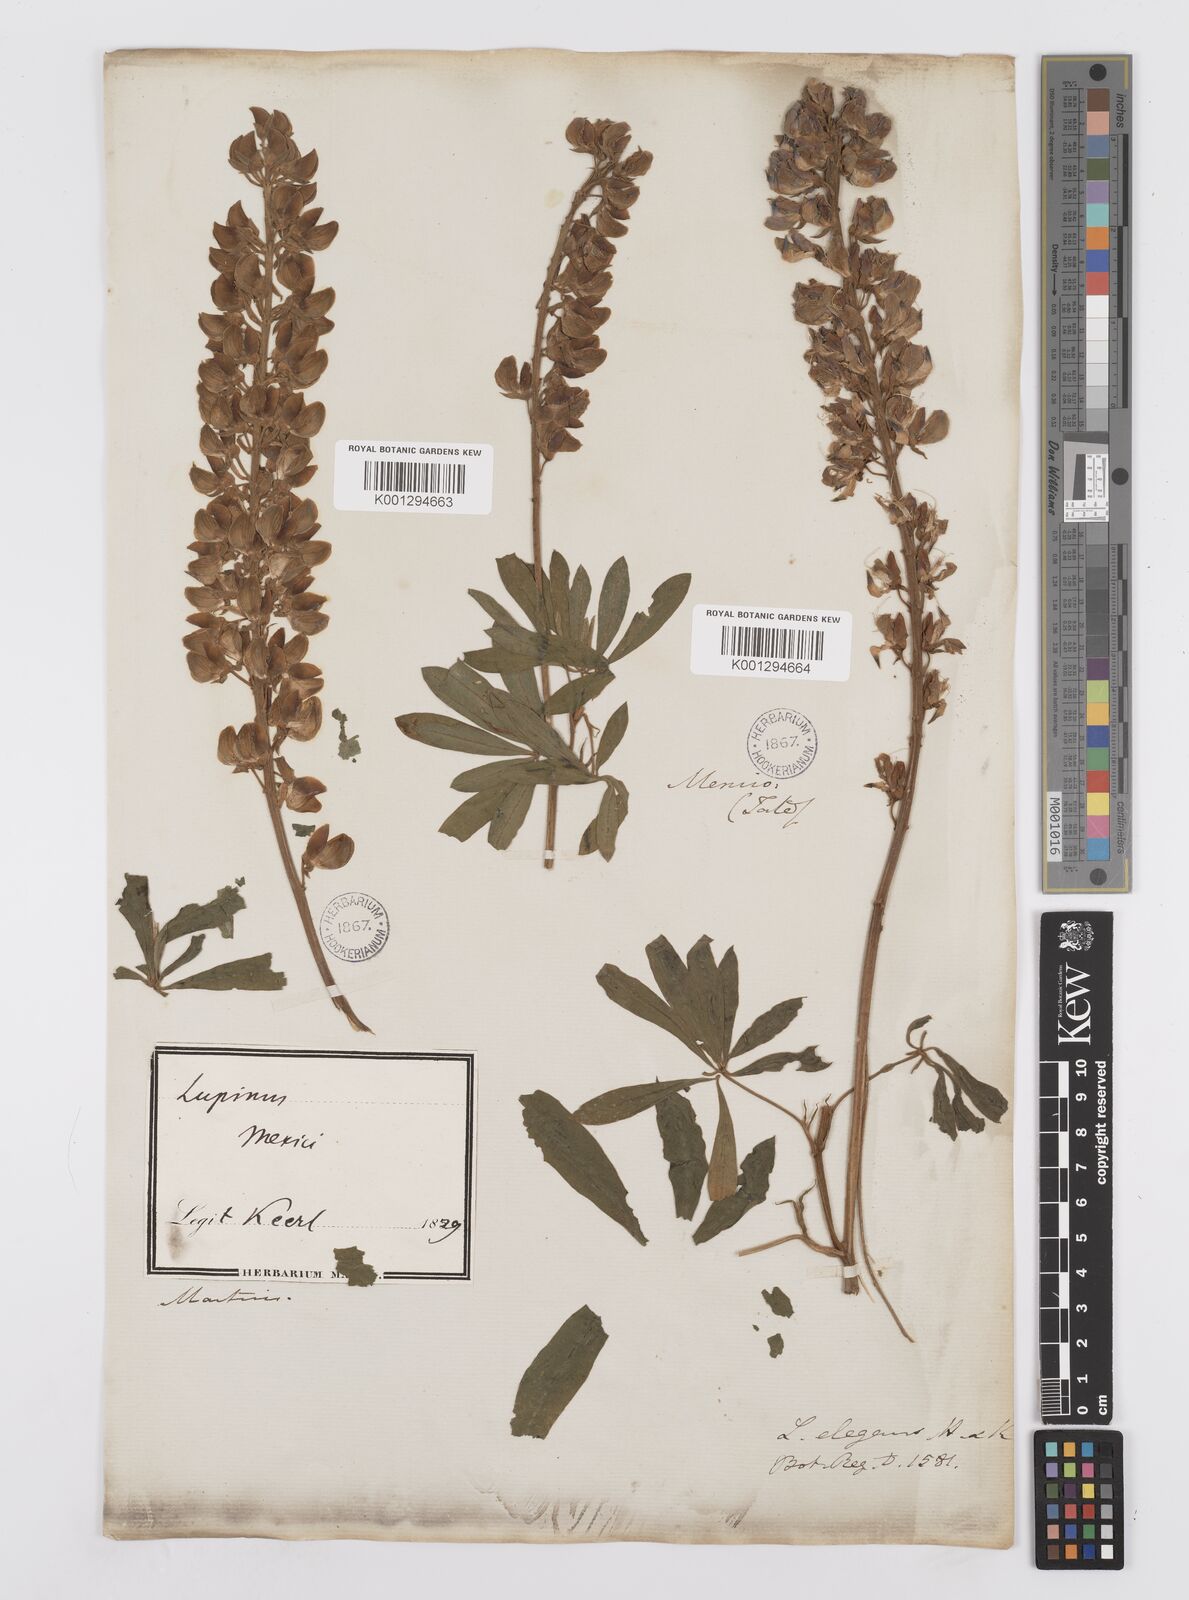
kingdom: Plantae
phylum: Tracheophyta
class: Magnoliopsida
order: Fabales
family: Fabaceae
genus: Lupinus
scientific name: Lupinus elegans
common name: Mexican lupine
